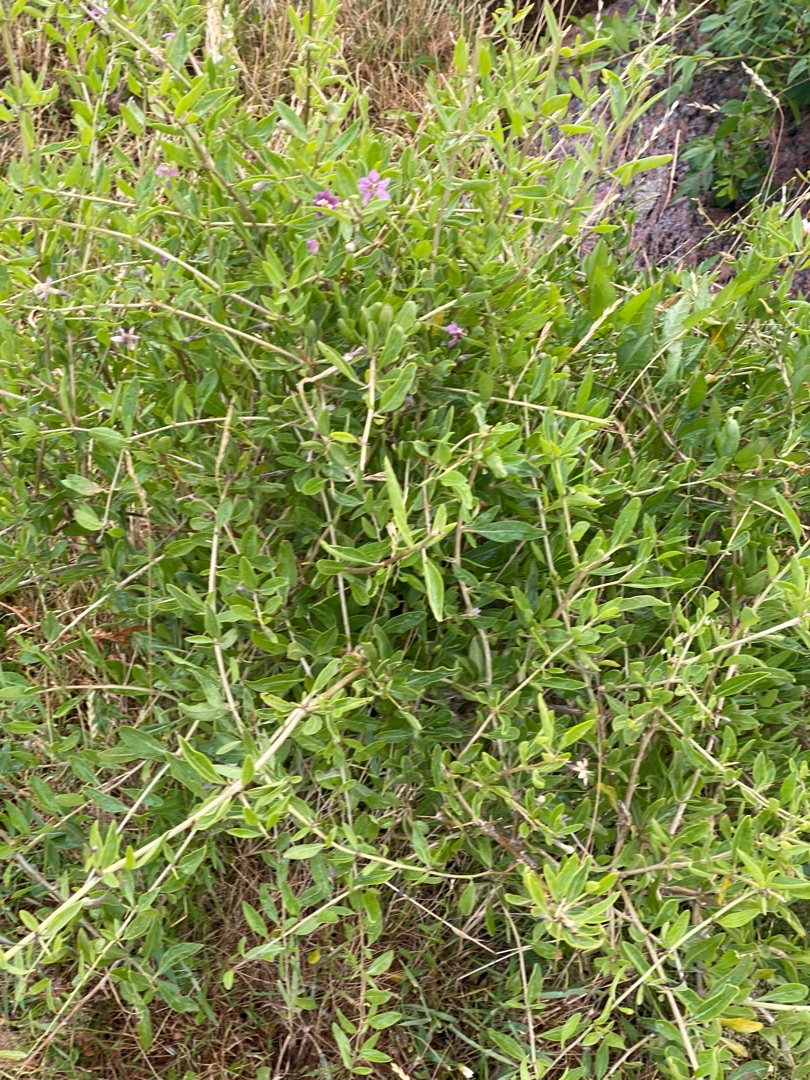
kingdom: Plantae
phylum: Tracheophyta
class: Magnoliopsida
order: Solanales
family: Solanaceae
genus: Lycium
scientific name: Lycium barbarum
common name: Bukketorn
